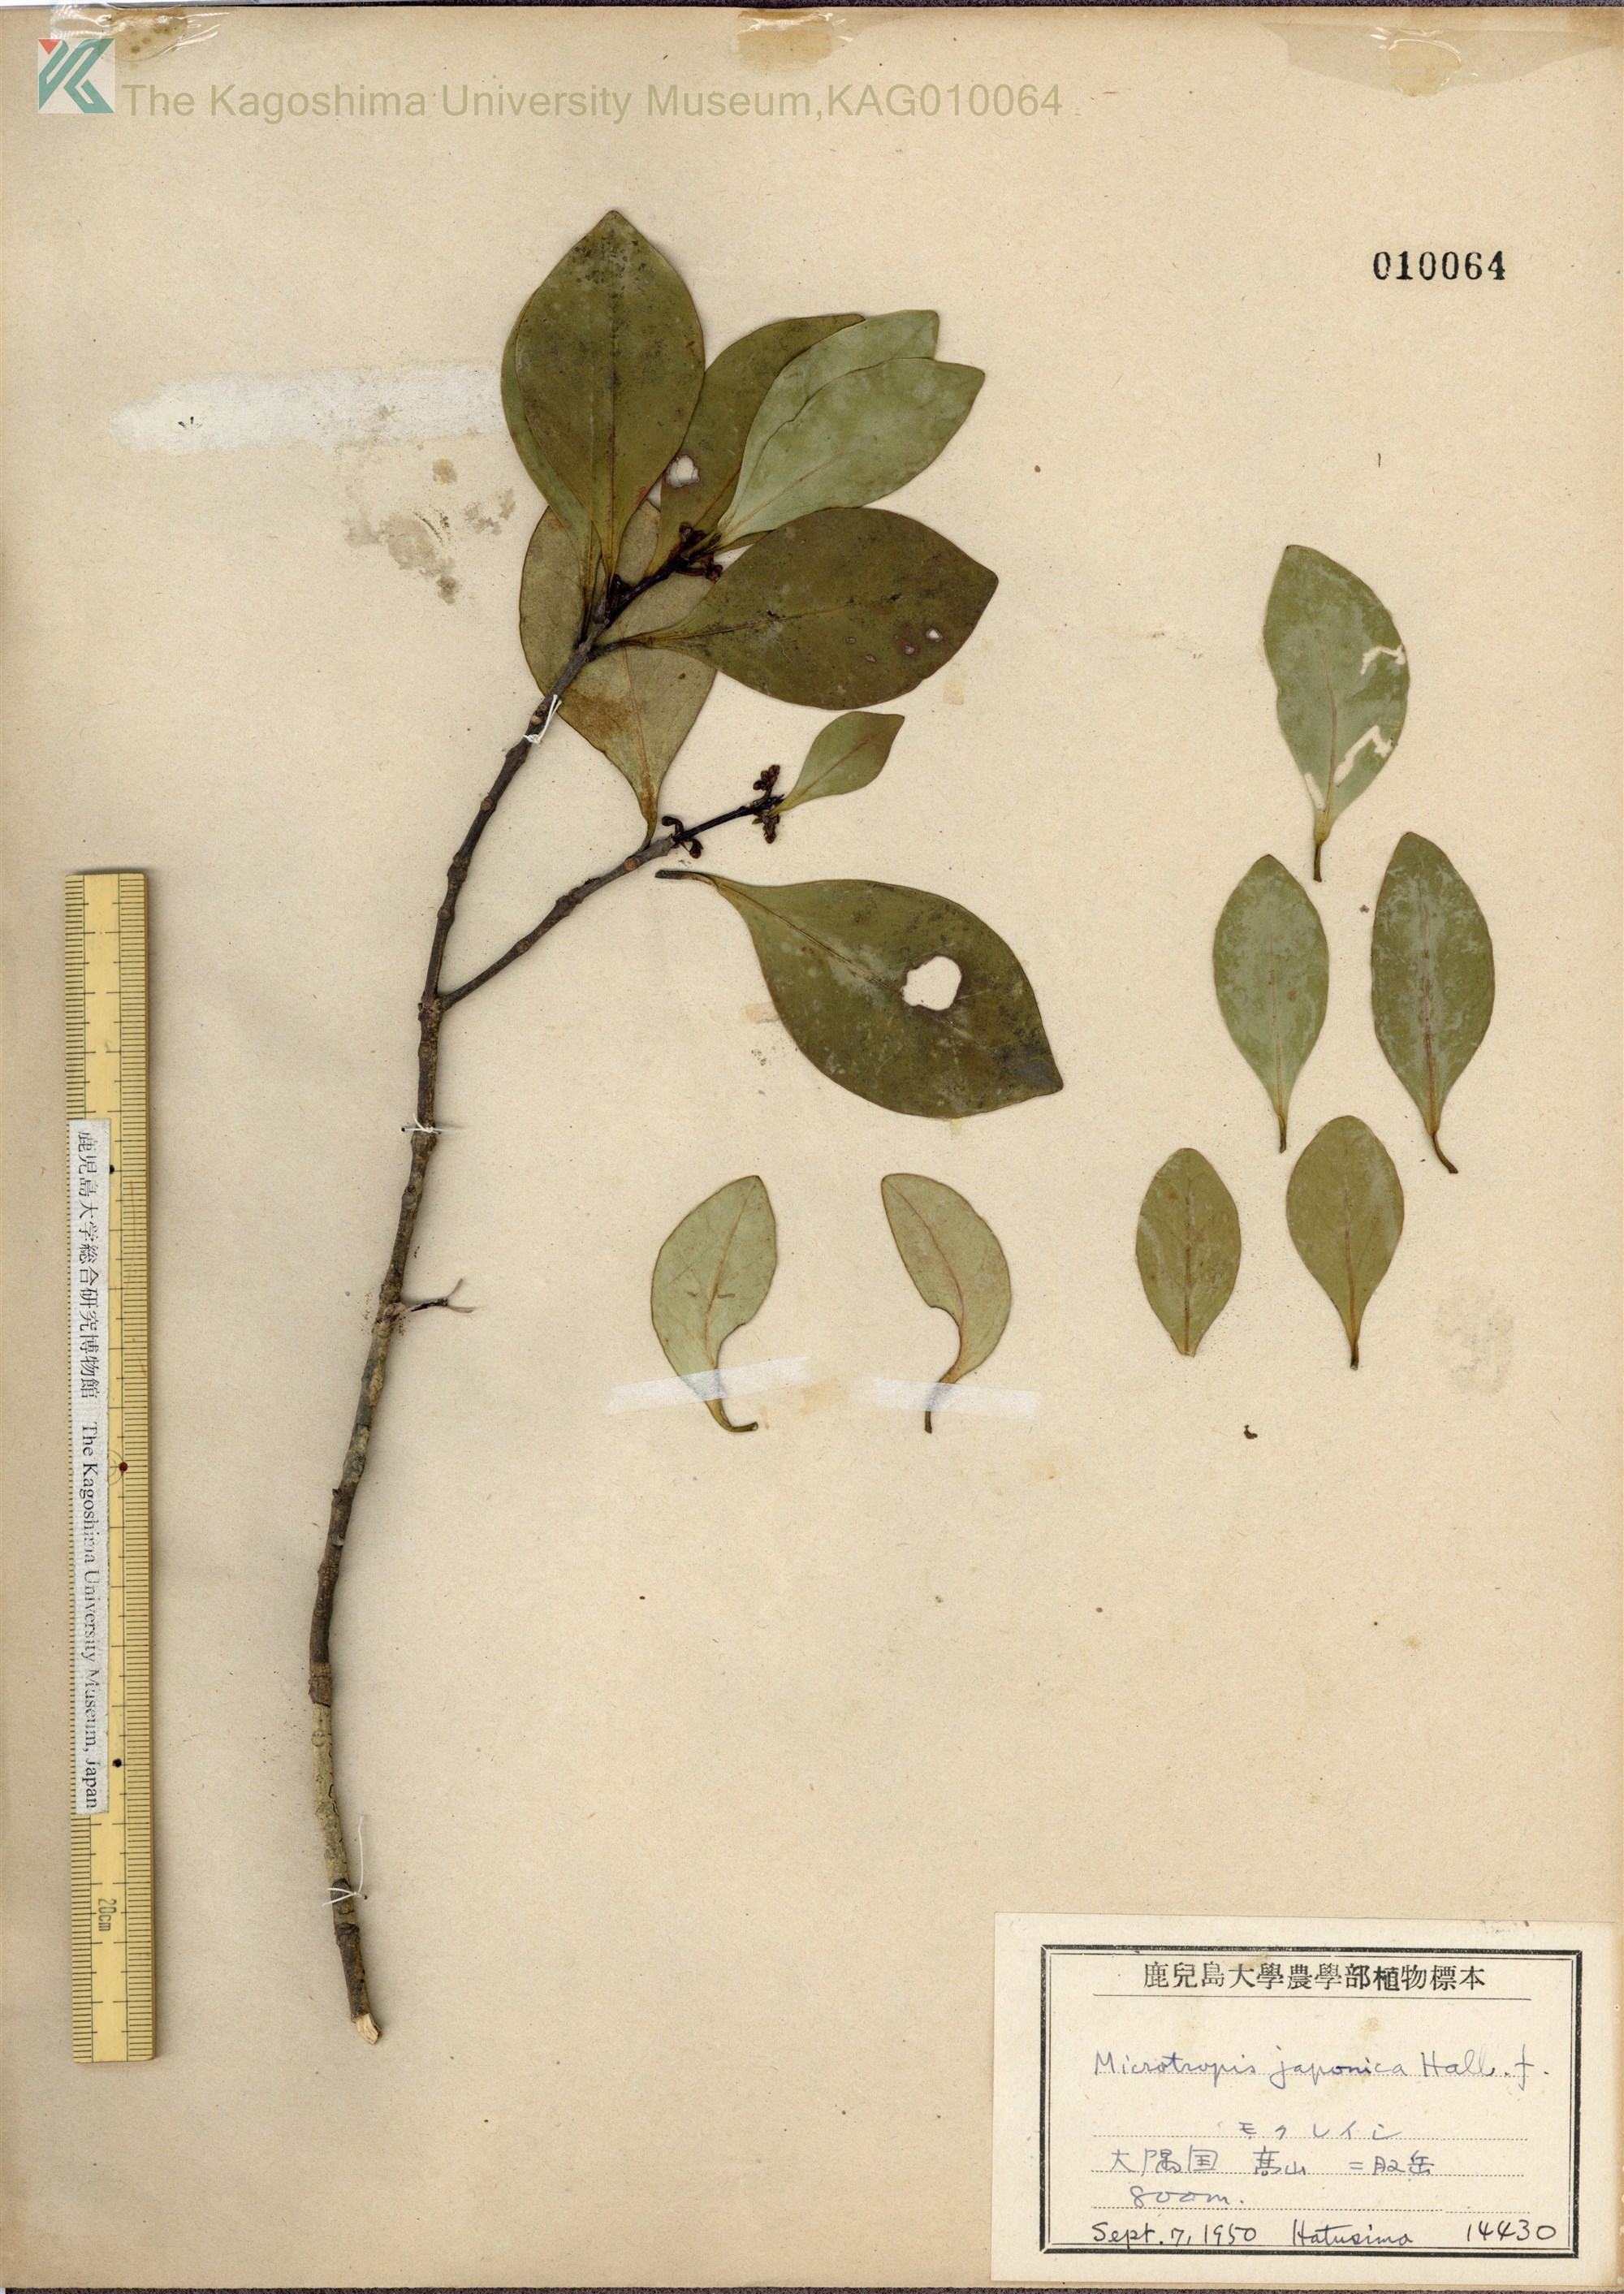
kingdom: Plantae
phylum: Tracheophyta
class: Magnoliopsida
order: Celastrales
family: Celastraceae
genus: Microtropis
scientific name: Microtropis japonica
